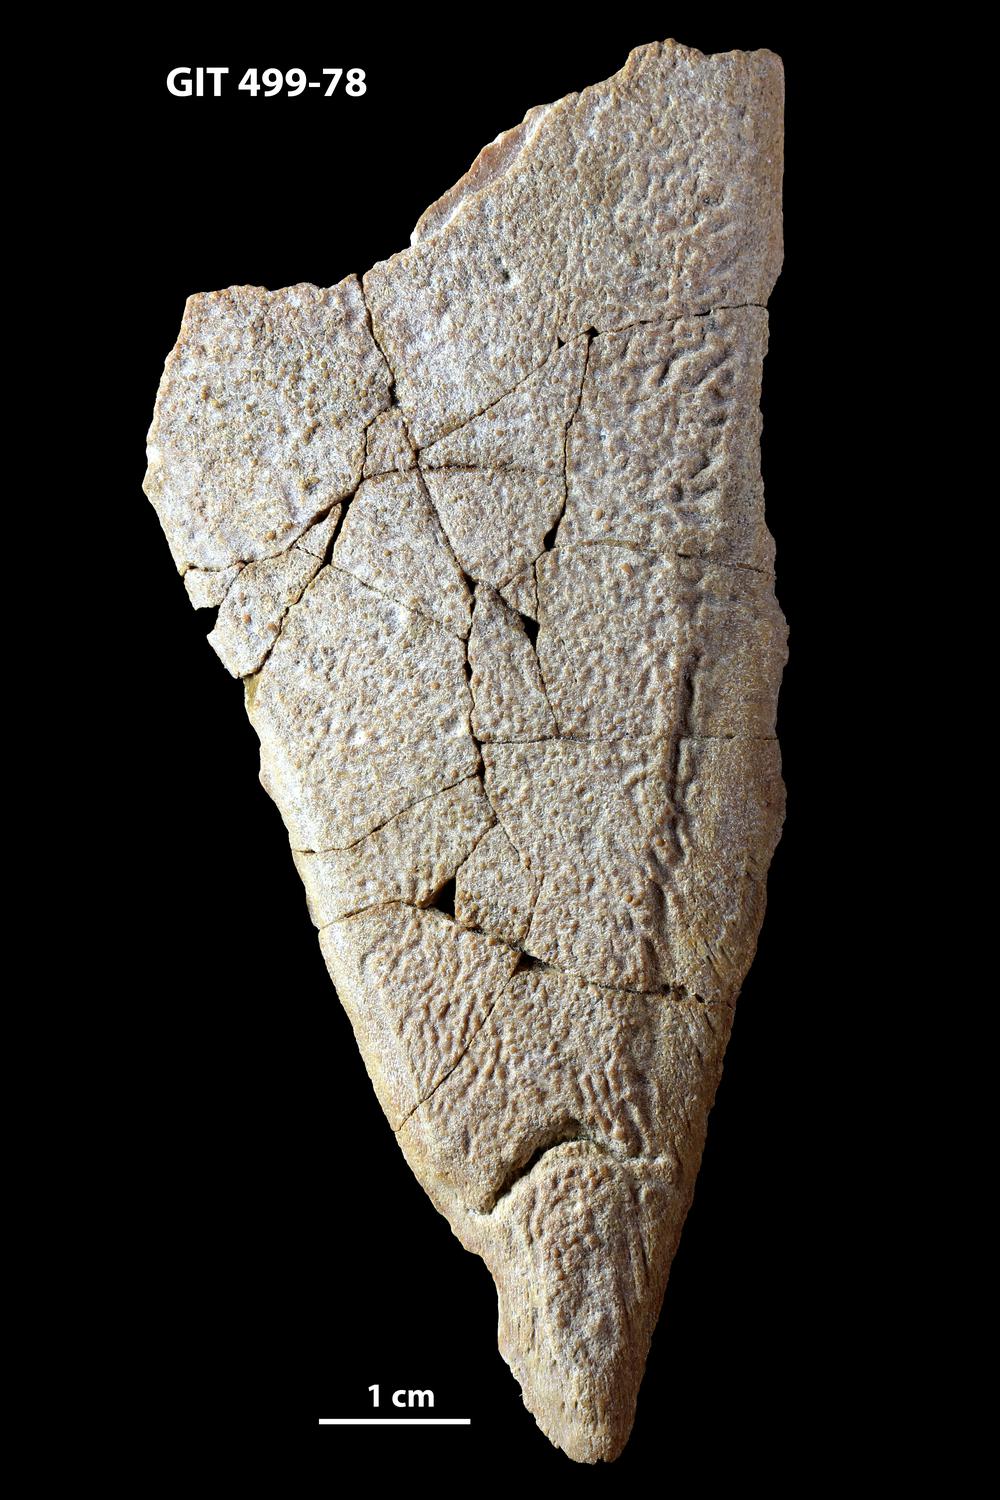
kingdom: Animalia
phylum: Chordata
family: Holoptychiidae
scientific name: Holoptychiidae
